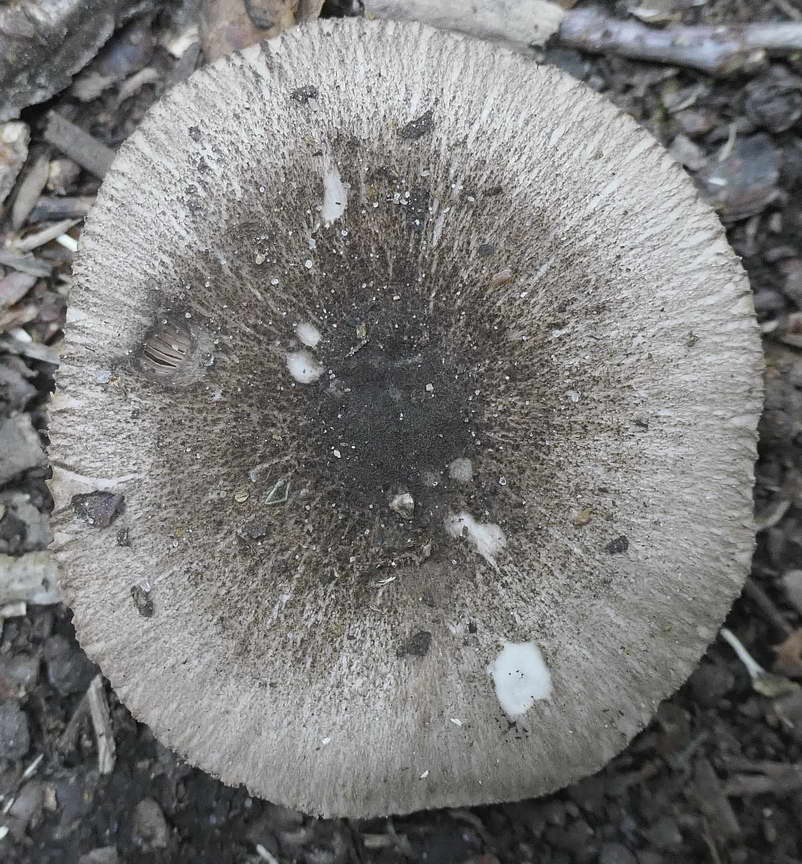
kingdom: Fungi
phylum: Basidiomycota
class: Agaricomycetes
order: Agaricales
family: Pluteaceae
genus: Pluteus
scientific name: Pluteus
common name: gråfibret skærmhat
